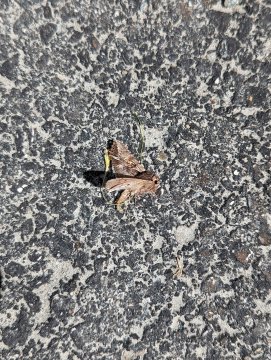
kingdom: Animalia
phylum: Arthropoda
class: Insecta
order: Lepidoptera
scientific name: Lepidoptera
